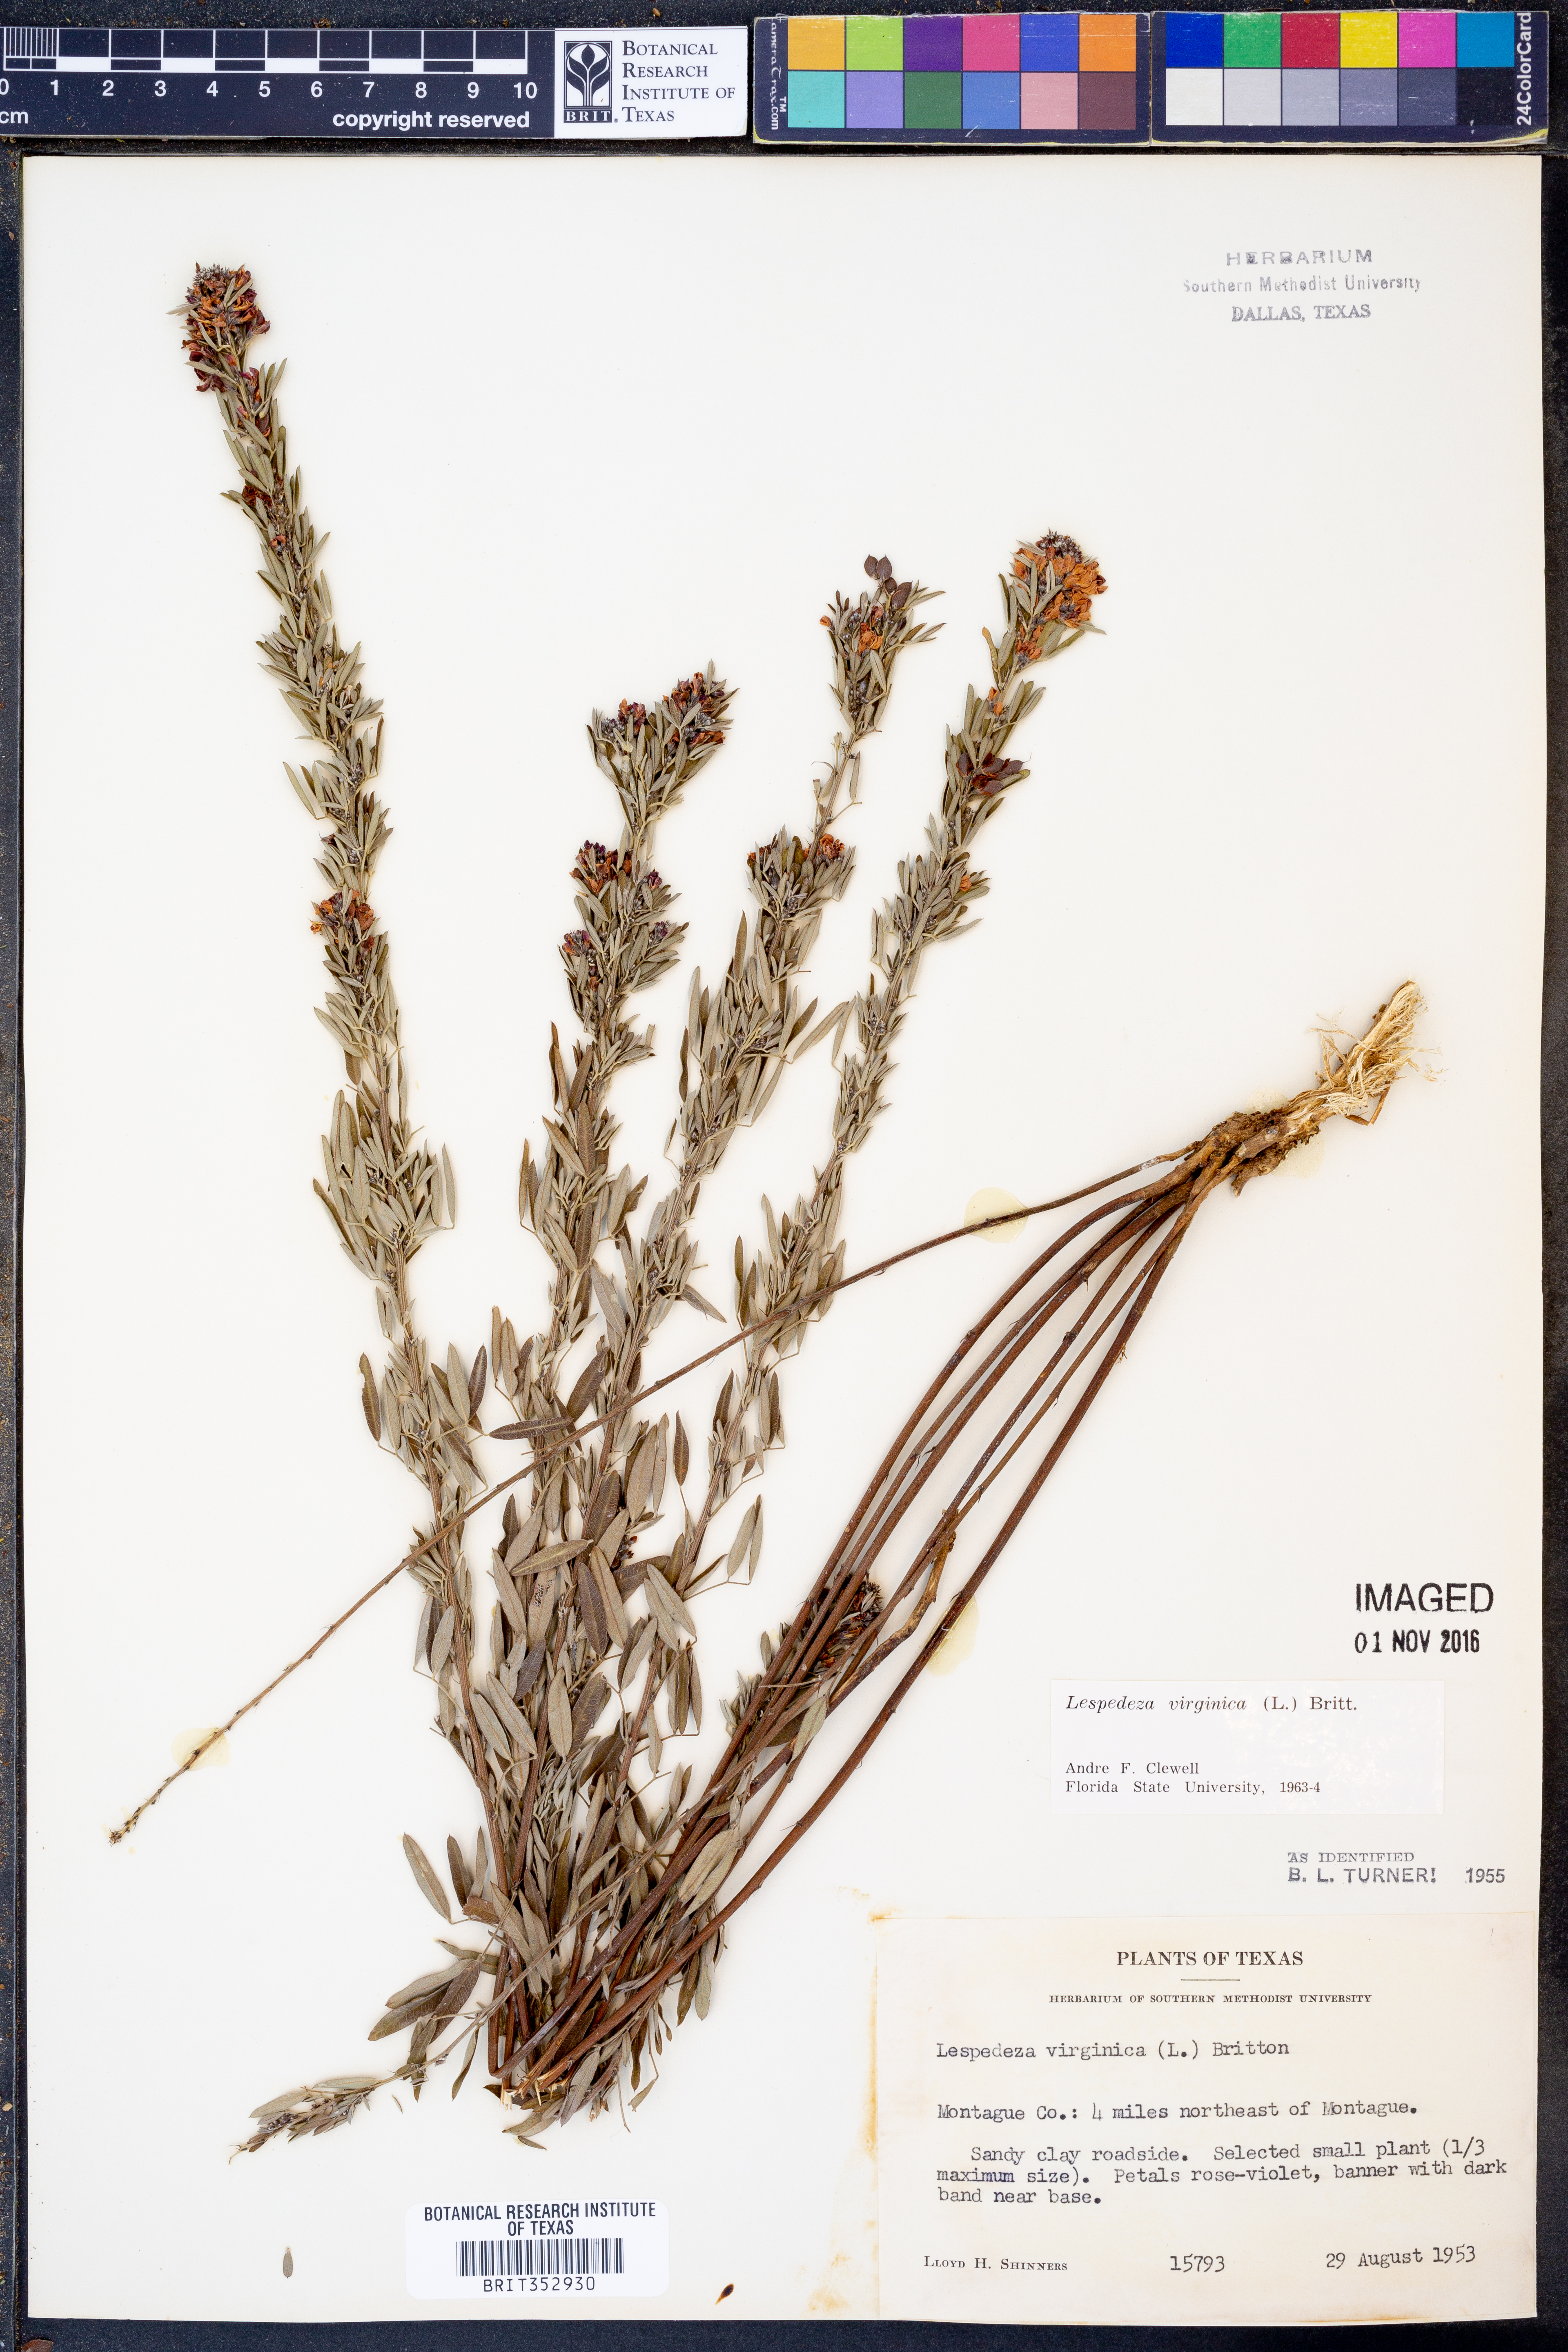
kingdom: Plantae
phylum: Tracheophyta
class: Magnoliopsida
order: Fabales
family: Fabaceae
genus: Lespedeza
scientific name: Lespedeza virginica
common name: Slender bush-clover
